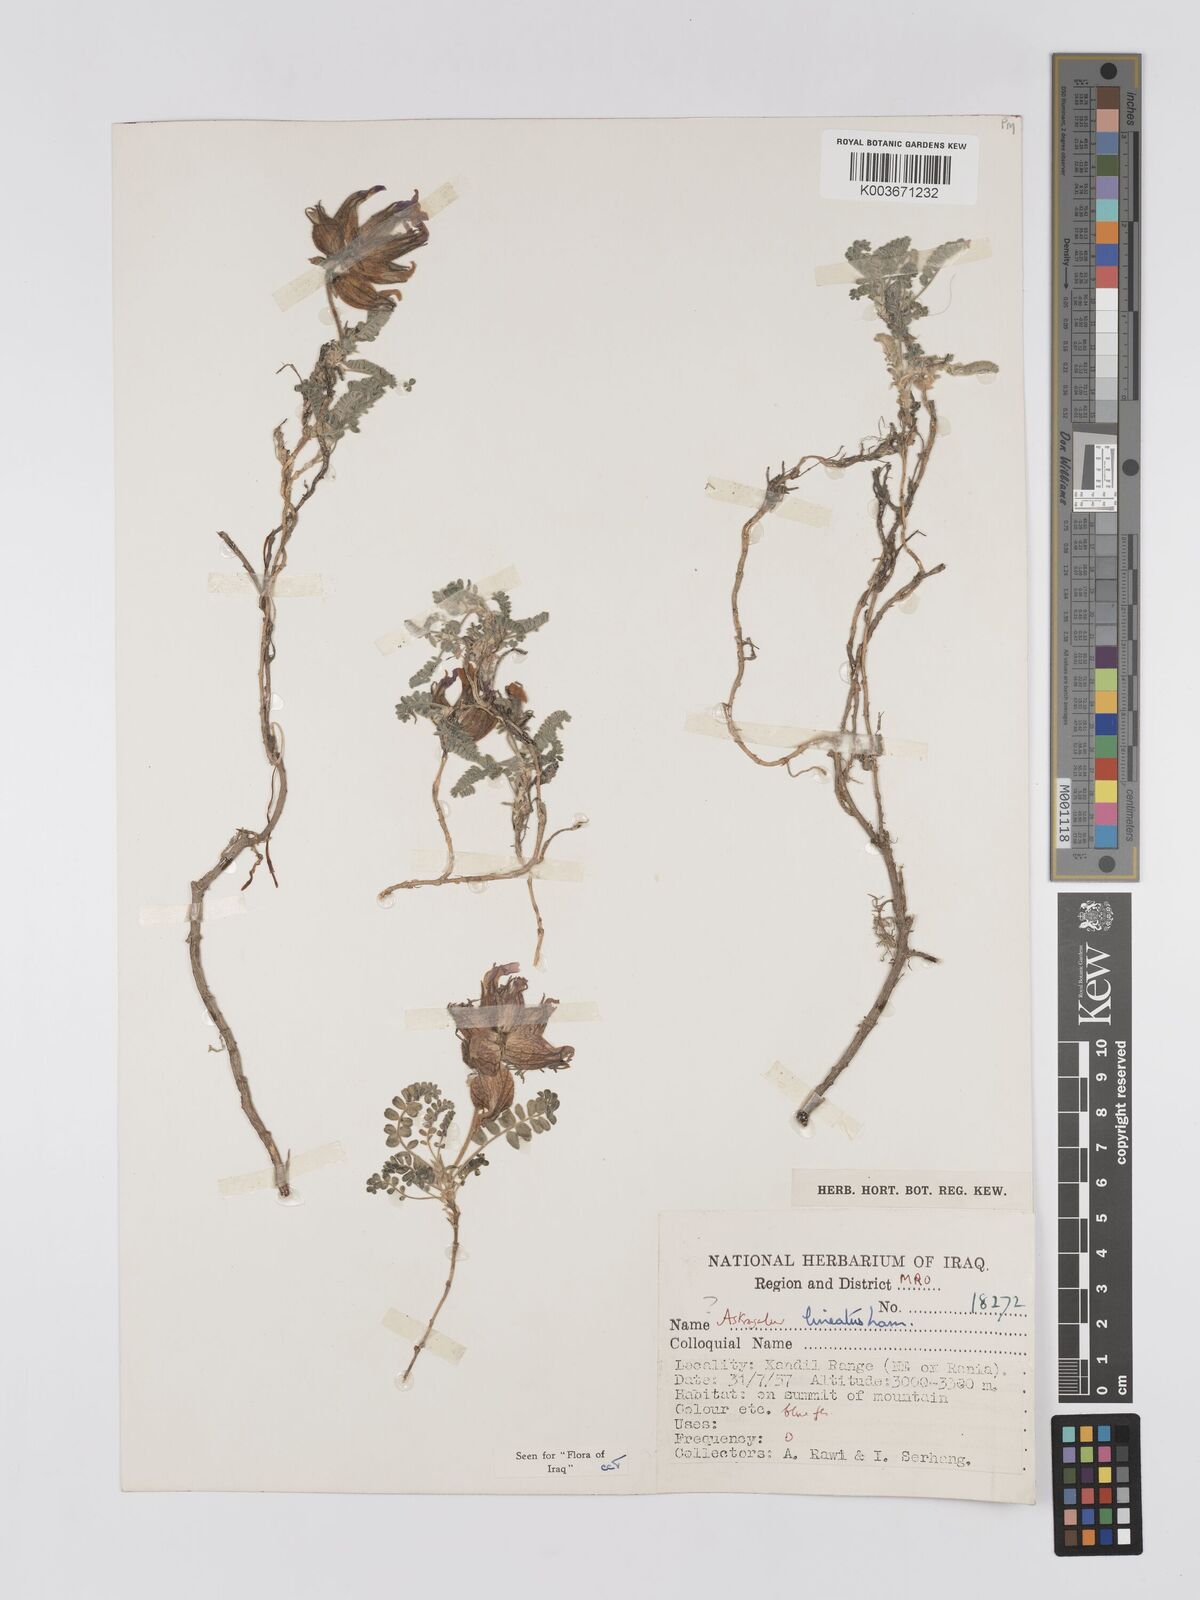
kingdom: Plantae
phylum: Tracheophyta
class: Magnoliopsida
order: Fabales
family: Fabaceae
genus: Astragalus
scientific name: Astragalus lineatus
